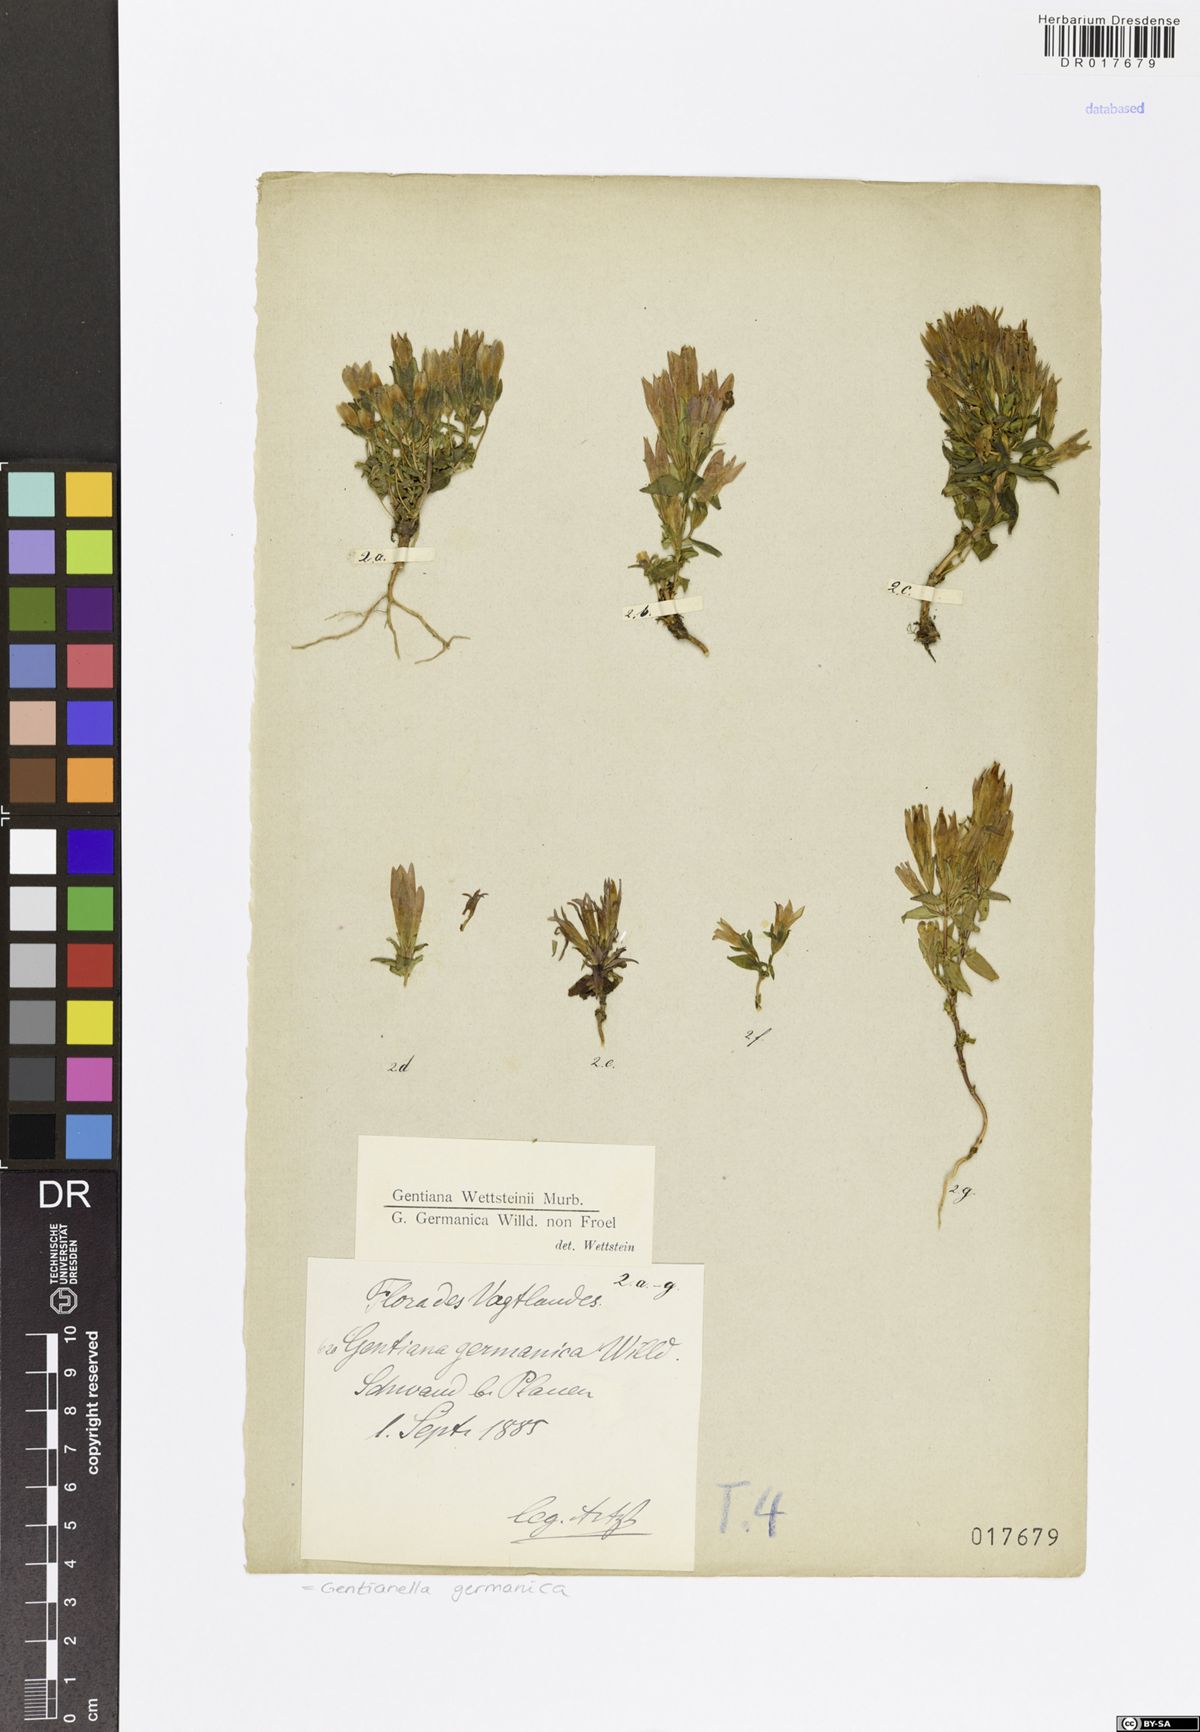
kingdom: Plantae
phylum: Tracheophyta
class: Magnoliopsida
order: Gentianales
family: Gentianaceae
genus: Gentianella
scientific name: Gentianella germanica
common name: Chiltern-gentian
